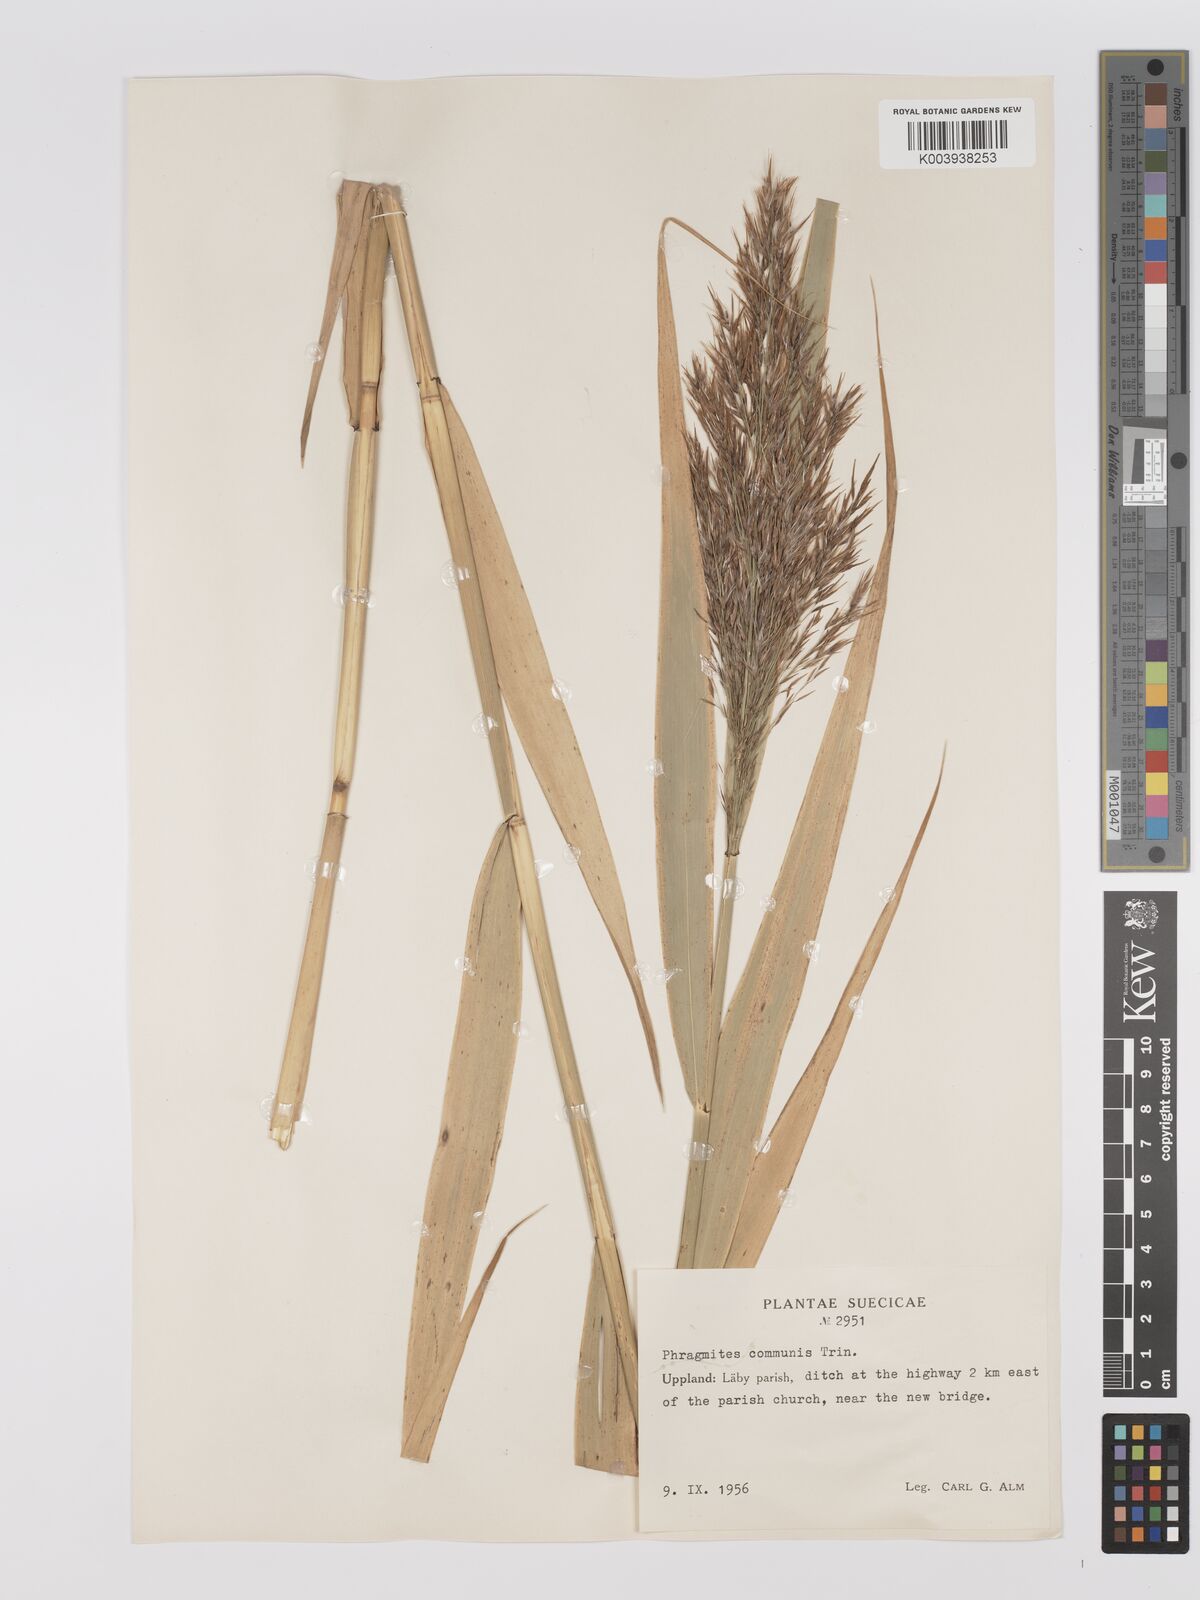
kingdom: Plantae
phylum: Tracheophyta
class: Liliopsida
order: Poales
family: Poaceae
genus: Phragmites
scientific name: Phragmites australis
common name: Common reed
